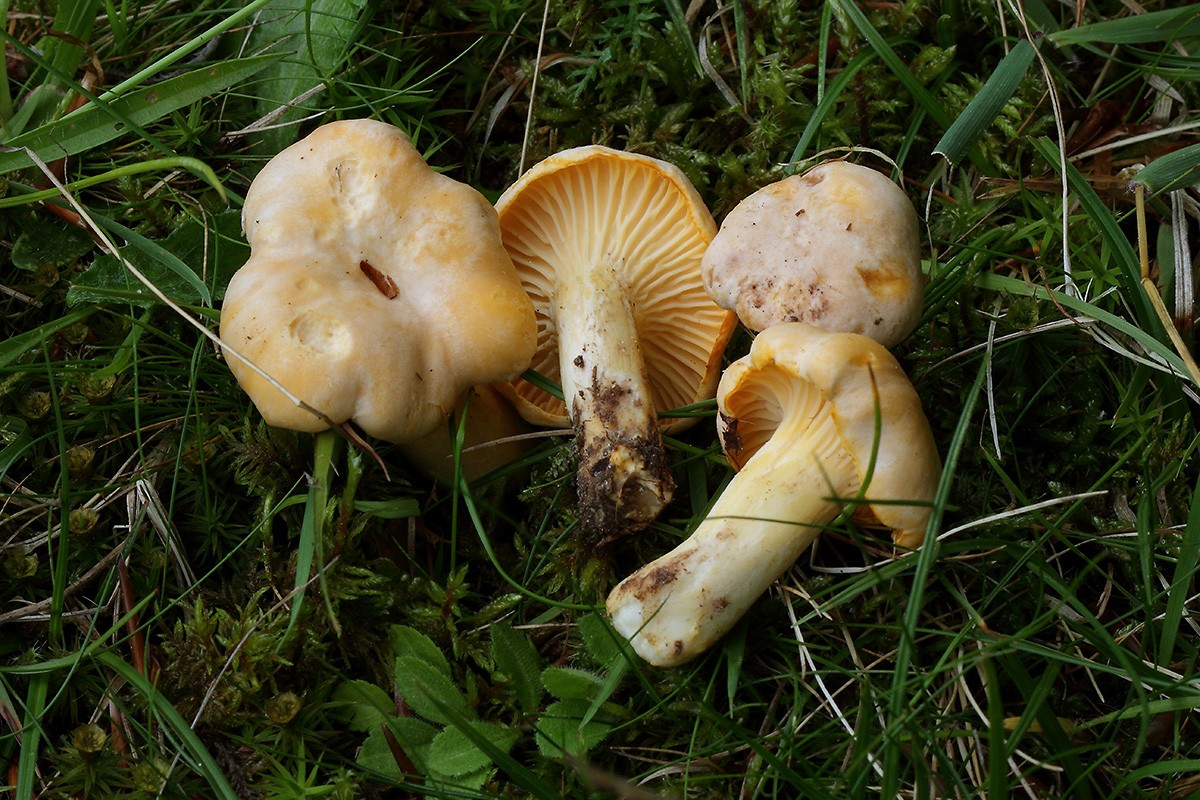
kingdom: Fungi
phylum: Basidiomycota
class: Agaricomycetes
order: Cantharellales
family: Hydnaceae
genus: Cantharellus
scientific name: Cantharellus pallens
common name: bleg kantarel
